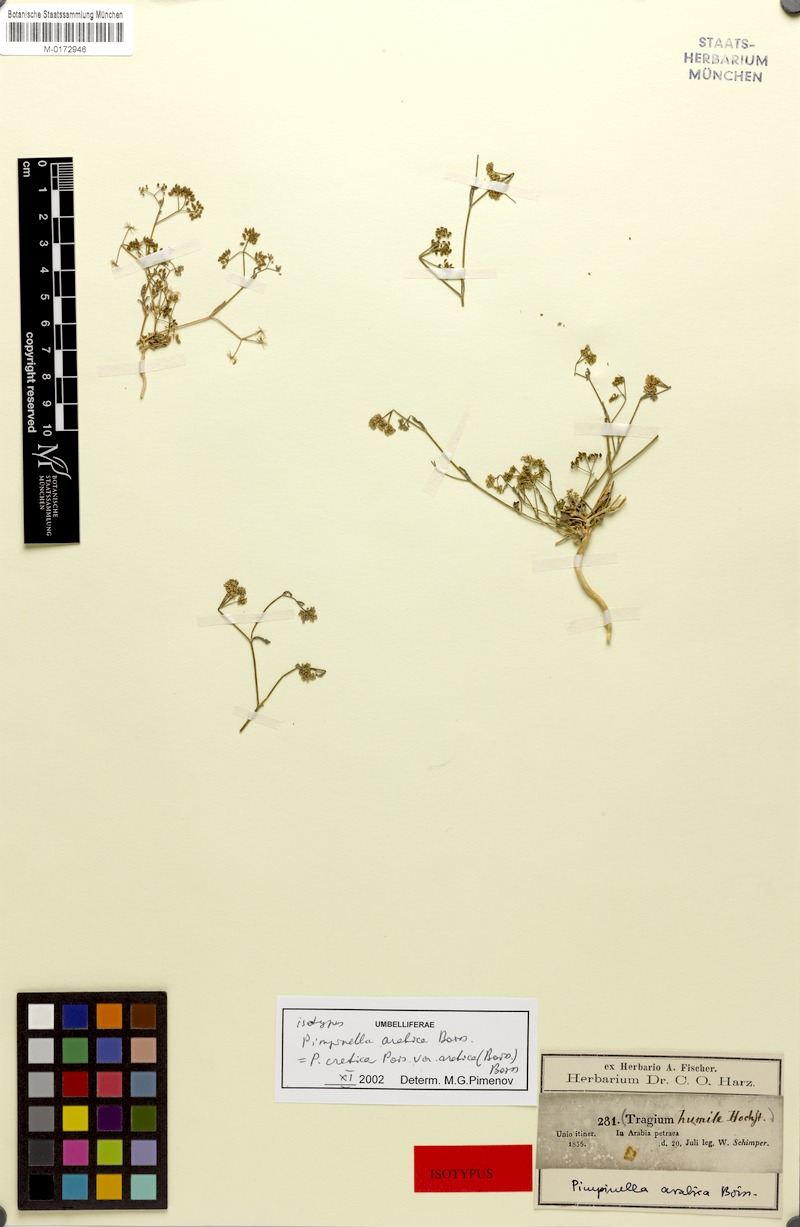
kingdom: Plantae
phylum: Tracheophyta
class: Magnoliopsida
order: Apiales
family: Apiaceae
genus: Pimpinella
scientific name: Pimpinella cretica
